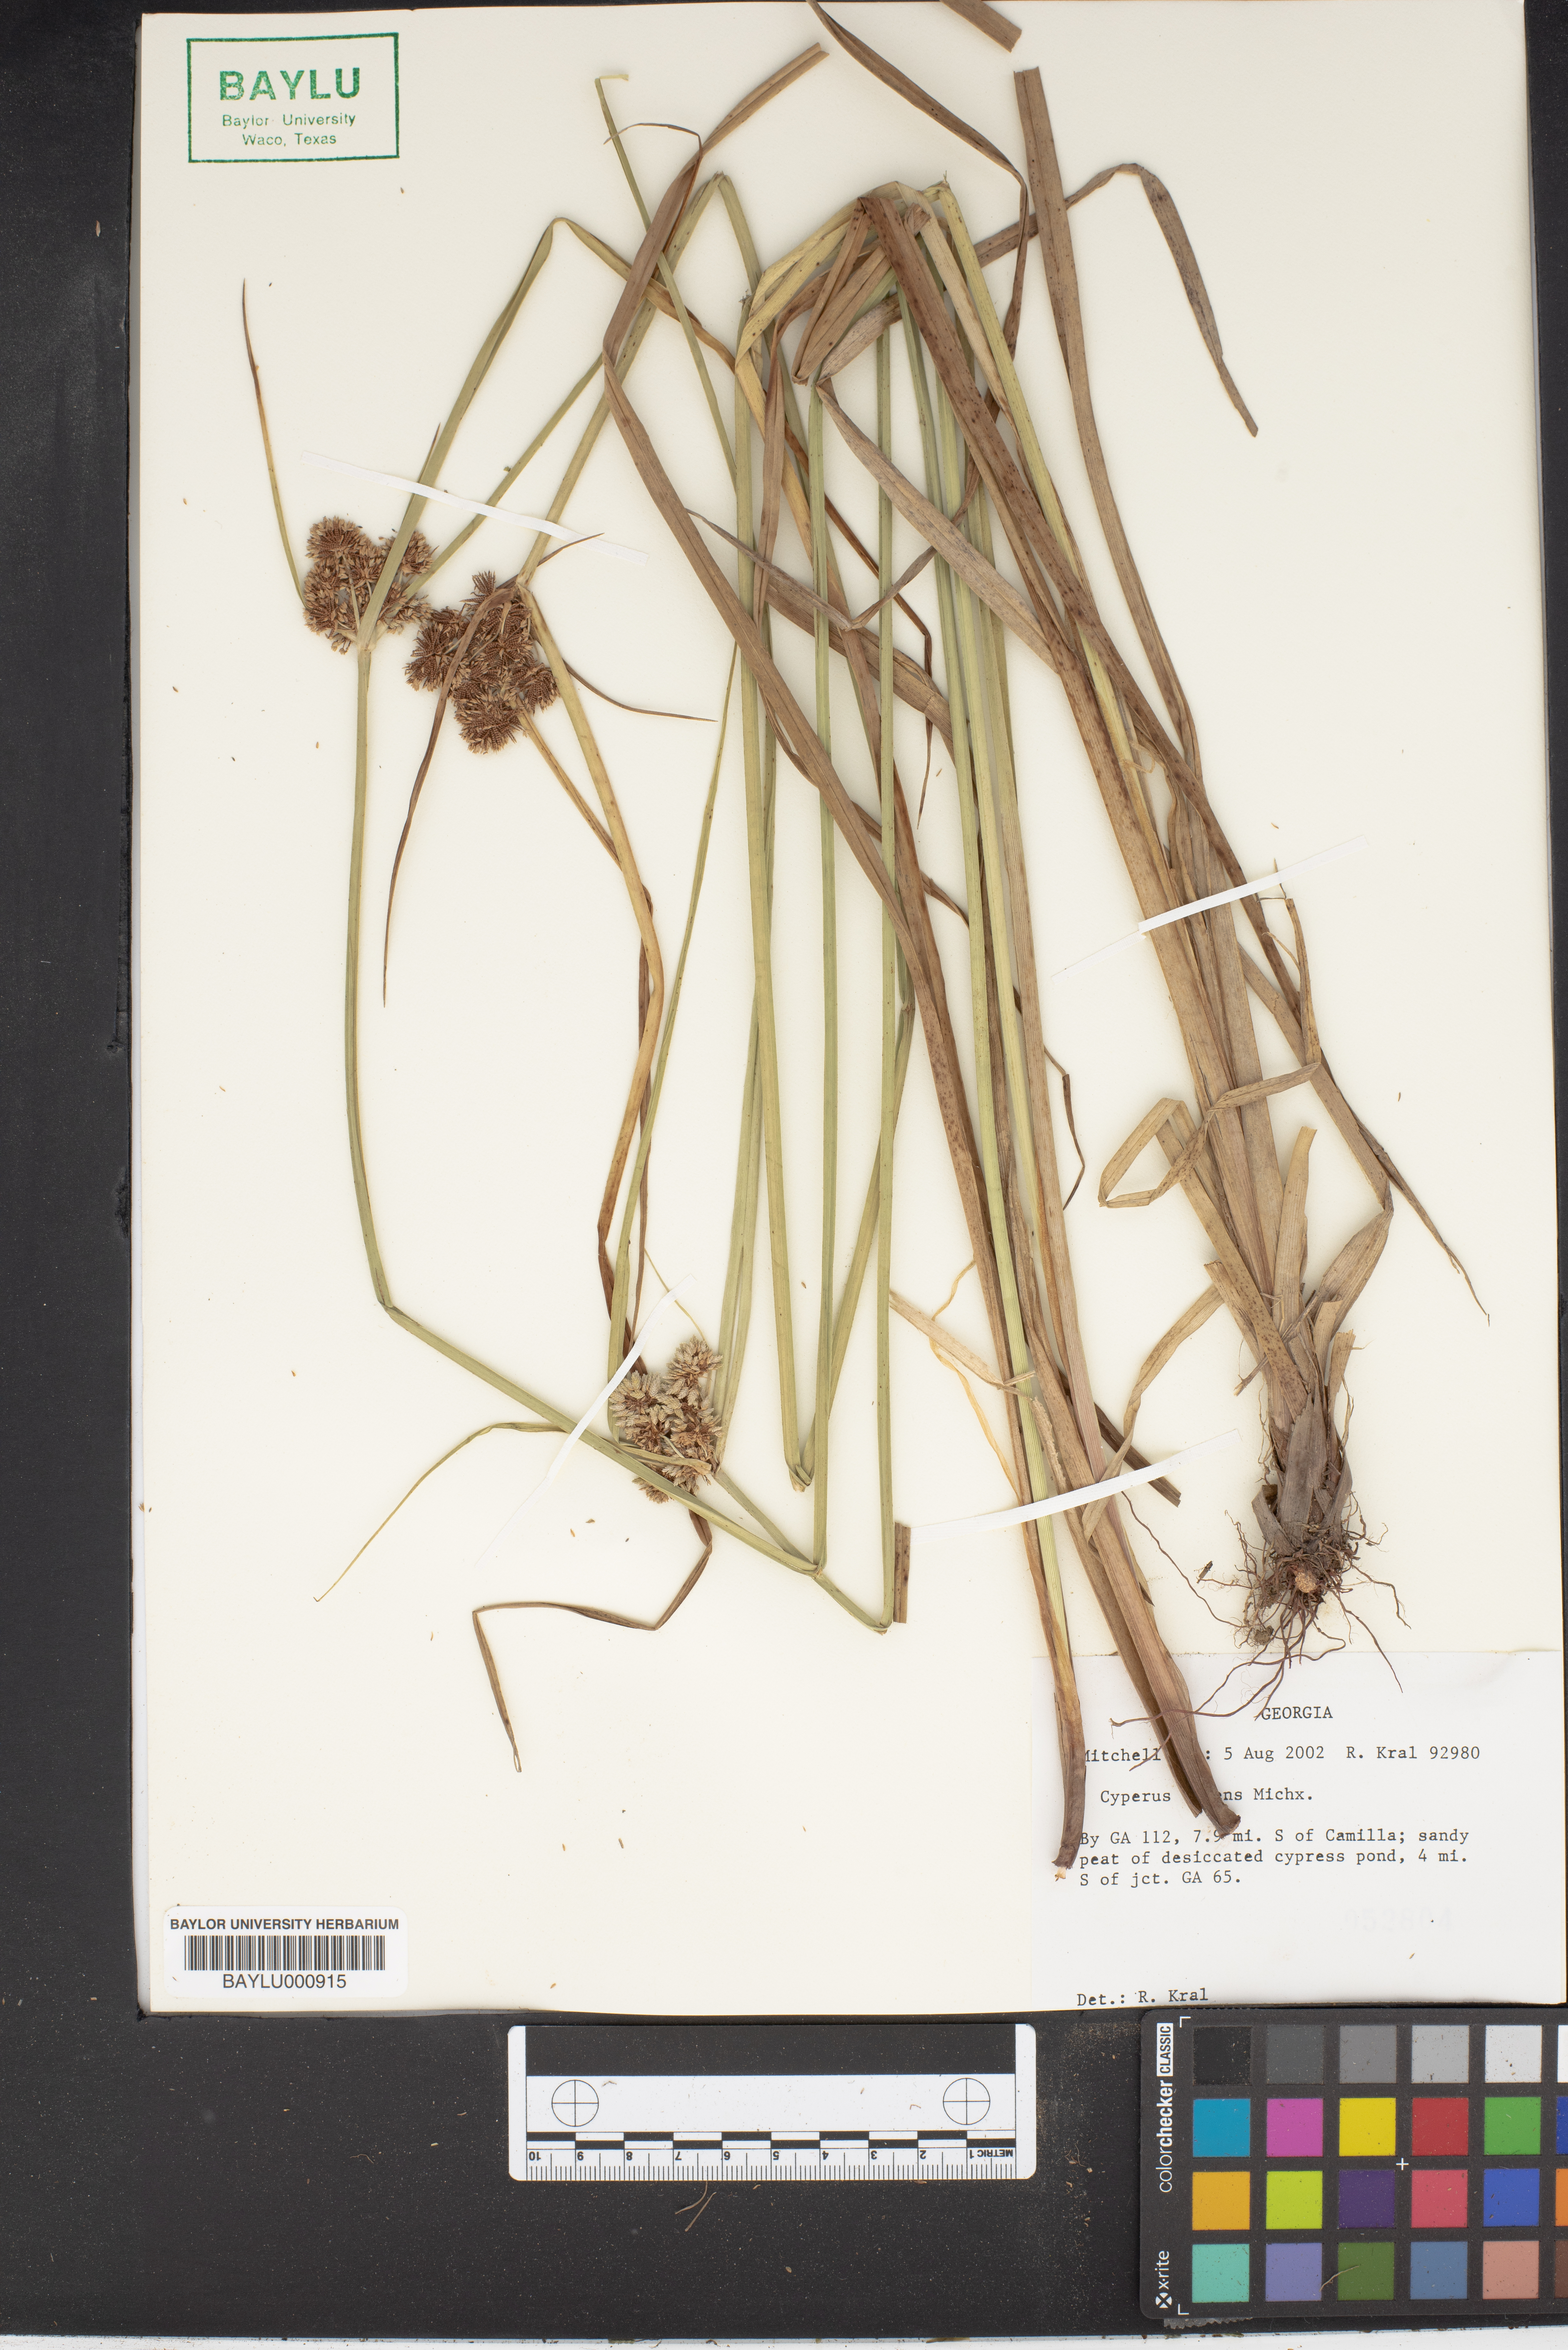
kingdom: Plantae
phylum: Tracheophyta
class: Liliopsida
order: Poales
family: Cyperaceae
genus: Cyperus
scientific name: Cyperus
